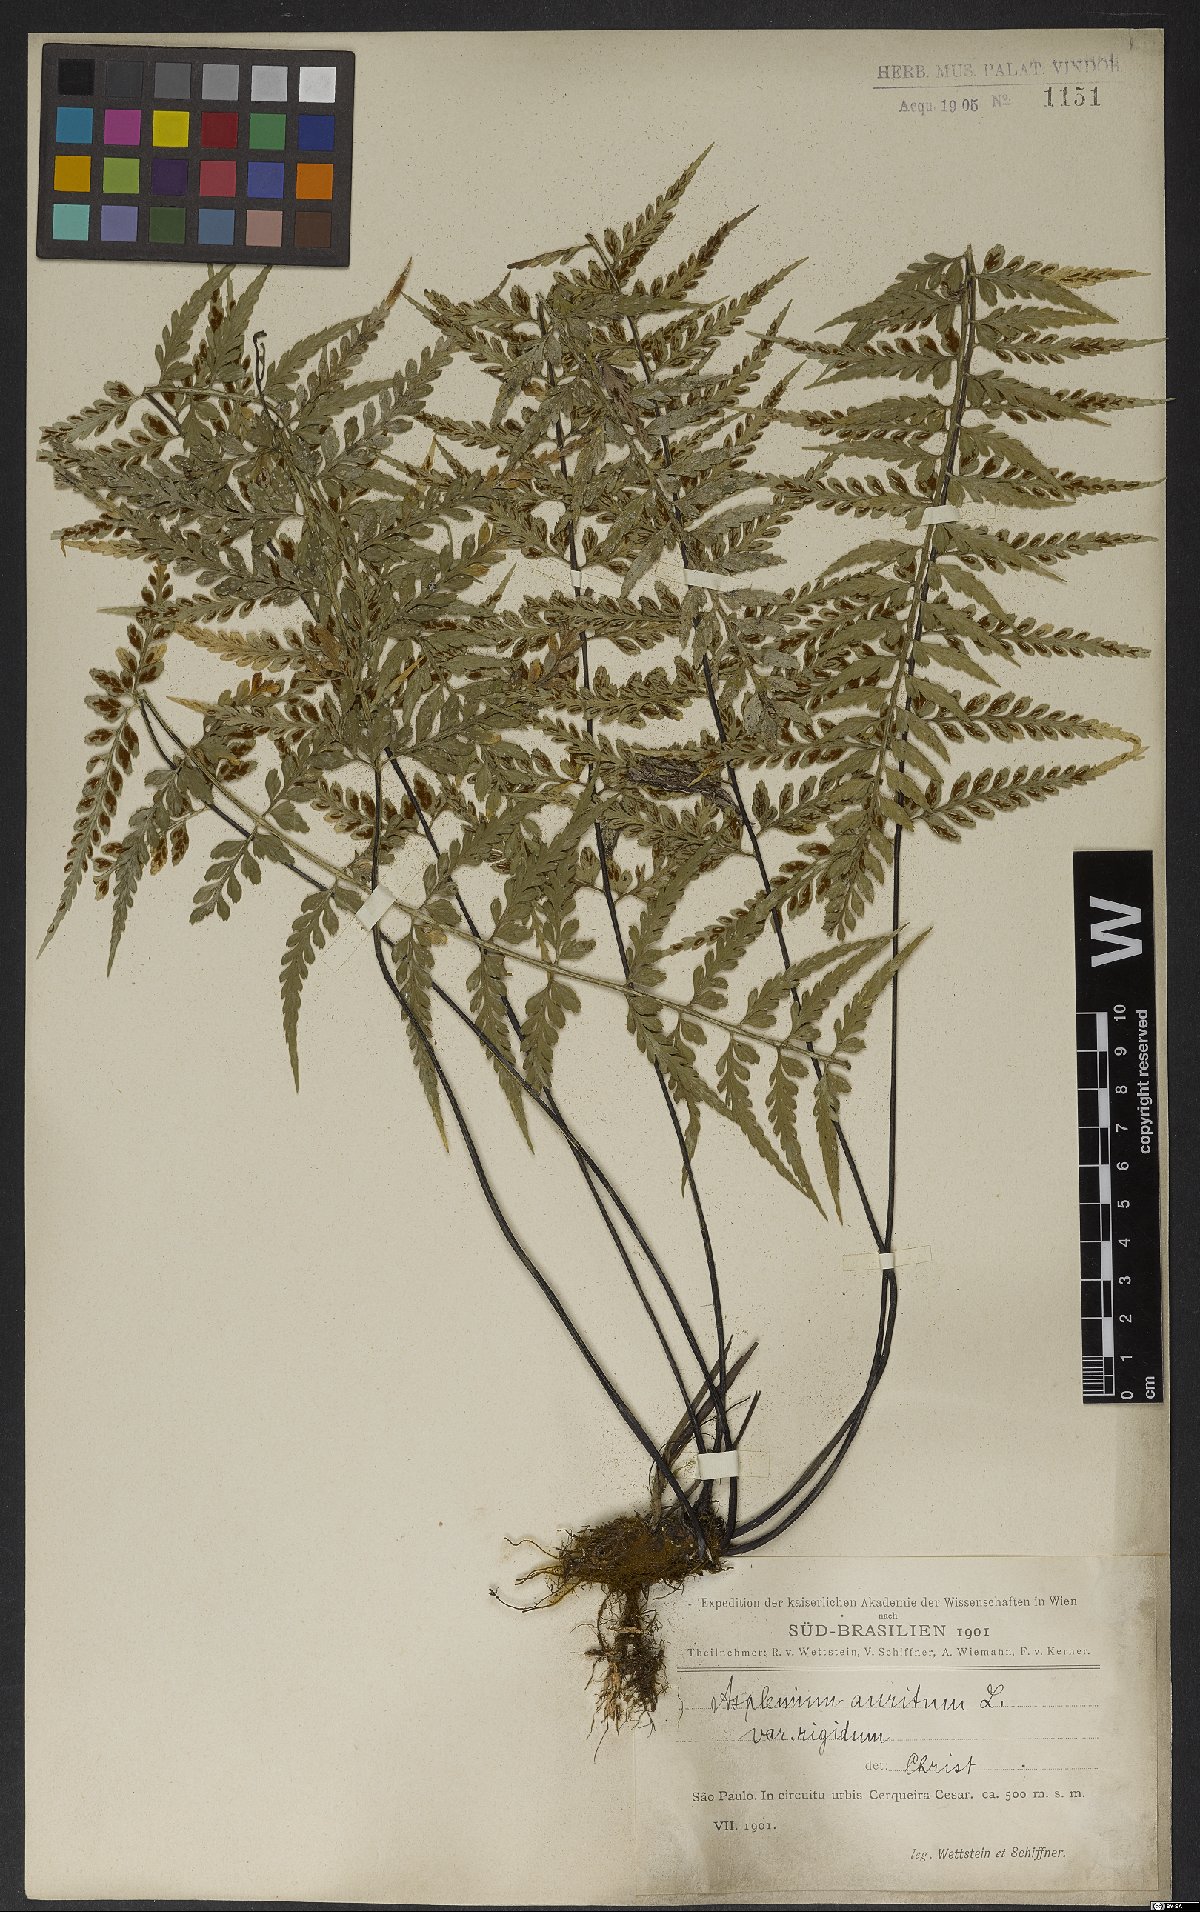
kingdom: Plantae
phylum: Tracheophyta
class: Polypodiopsida
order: Polypodiales
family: Aspleniaceae
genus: Asplenium
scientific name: Asplenium auritum
